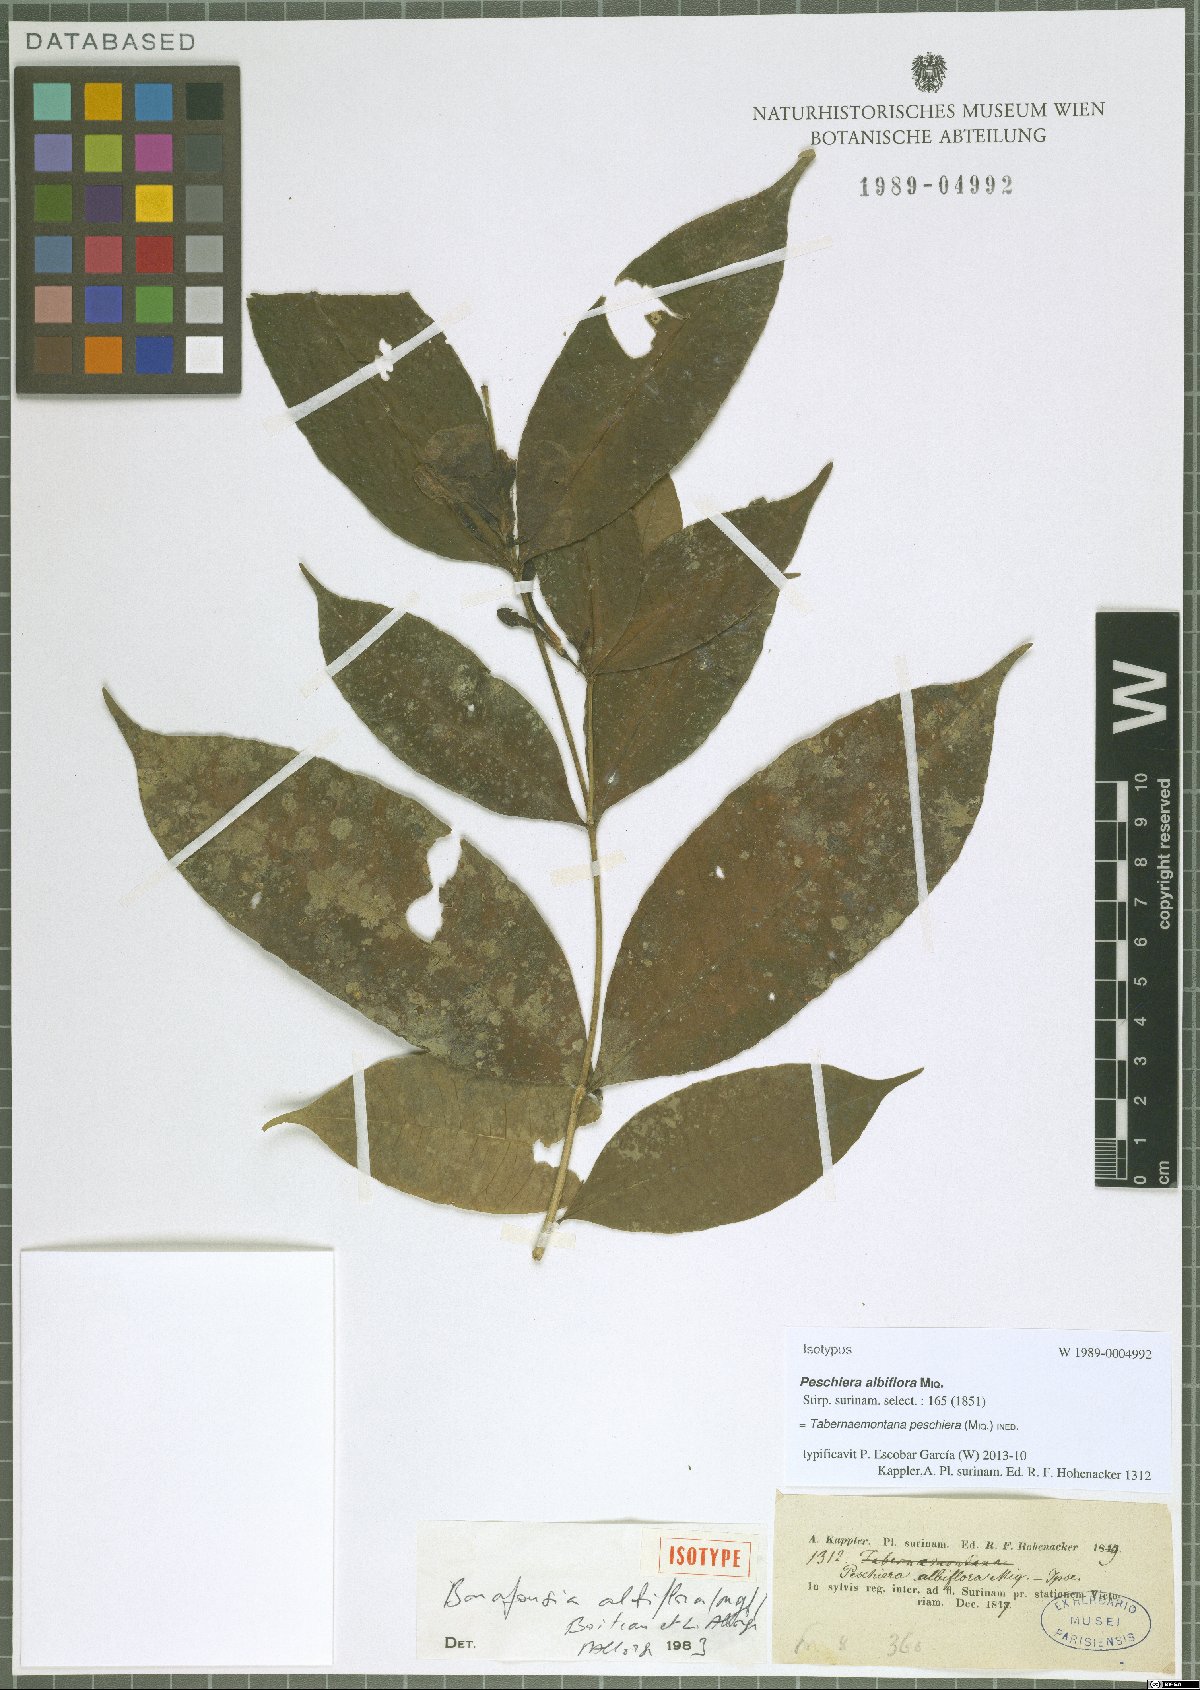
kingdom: Plantae
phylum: Tracheophyta
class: Magnoliopsida
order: Gentianales
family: Apocynaceae
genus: Tabernaemontana
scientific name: Tabernaemontana peschiera
